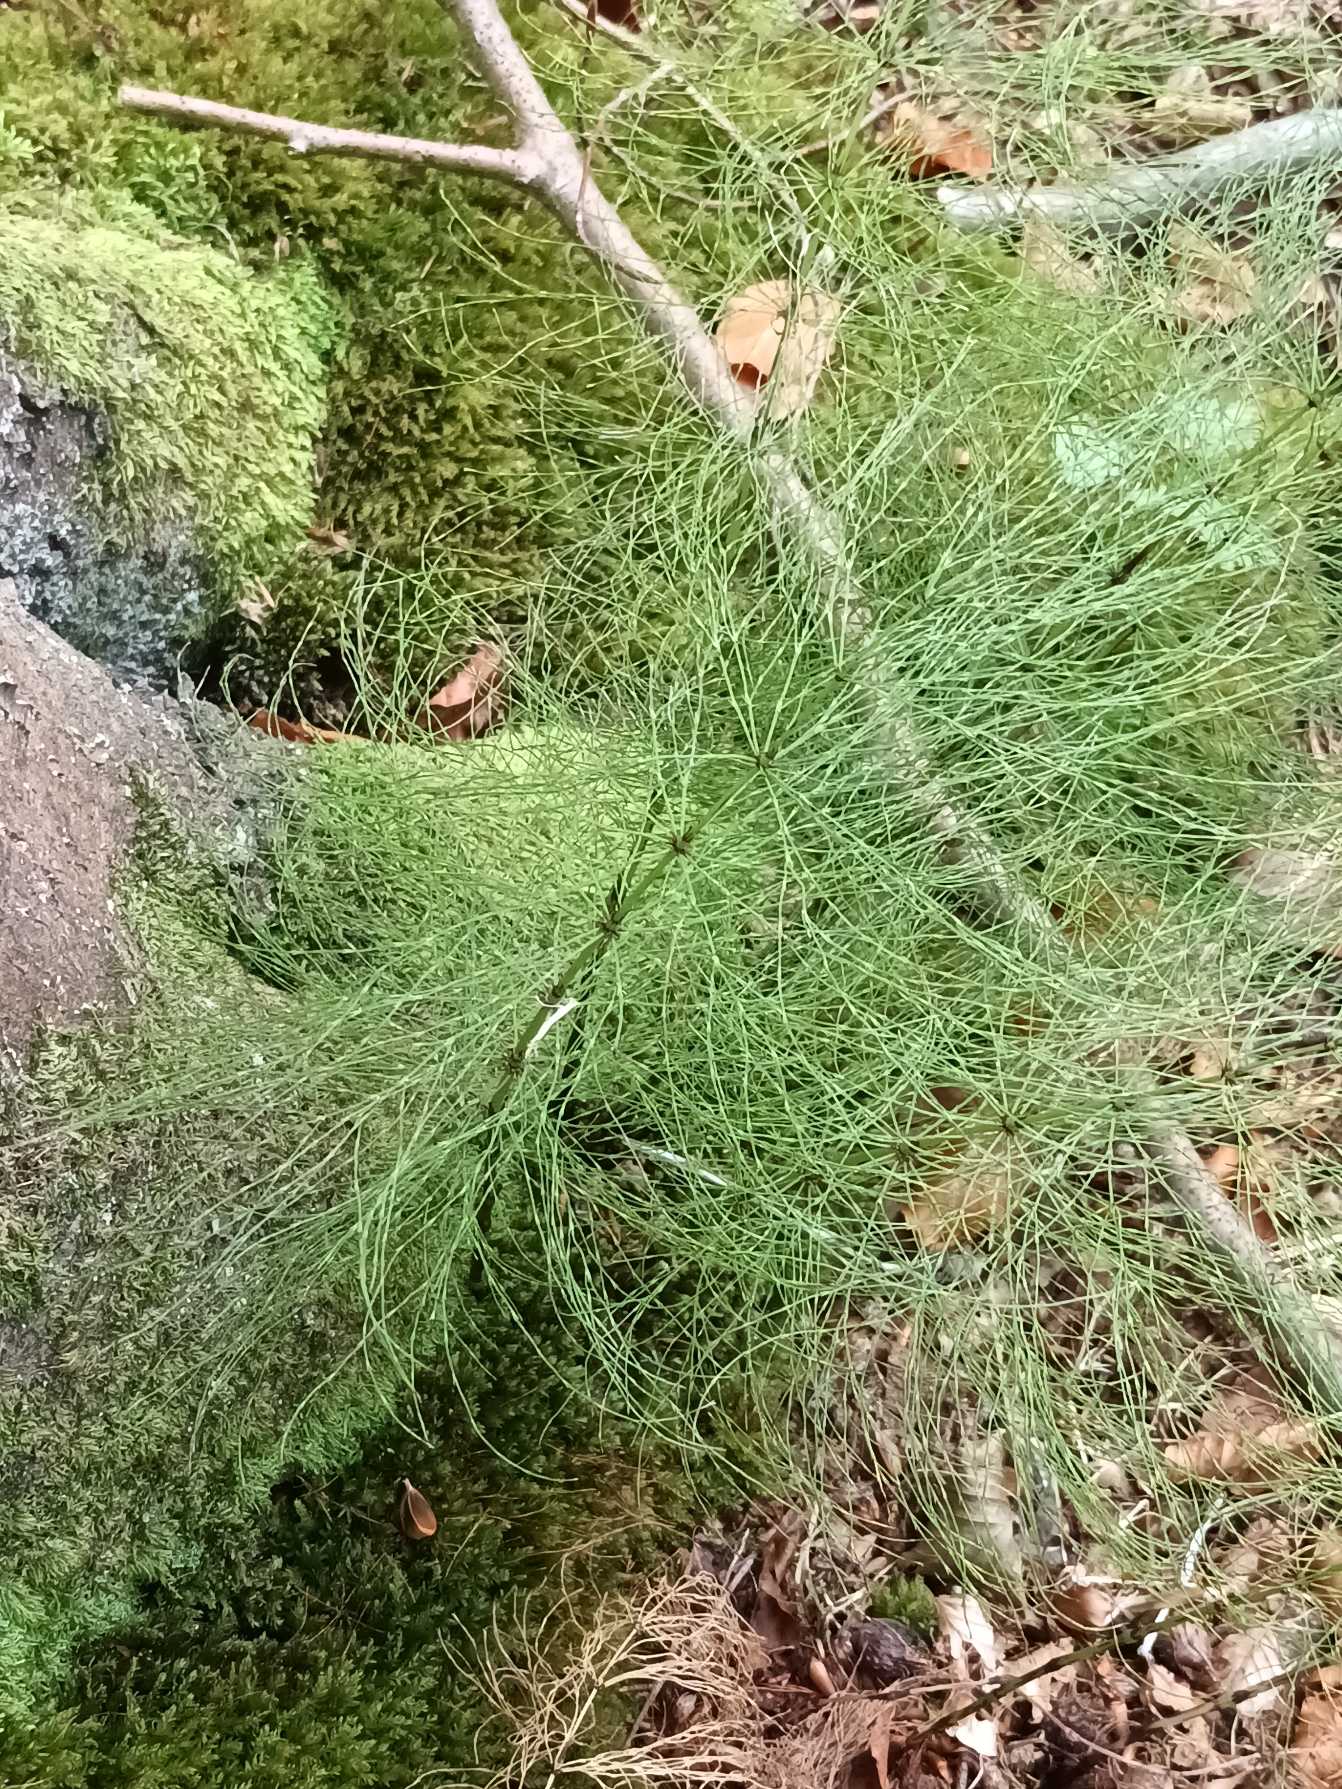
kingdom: Plantae
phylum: Tracheophyta
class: Polypodiopsida
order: Equisetales
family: Equisetaceae
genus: Equisetum
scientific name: Equisetum sylvaticum
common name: Skov-padderok
